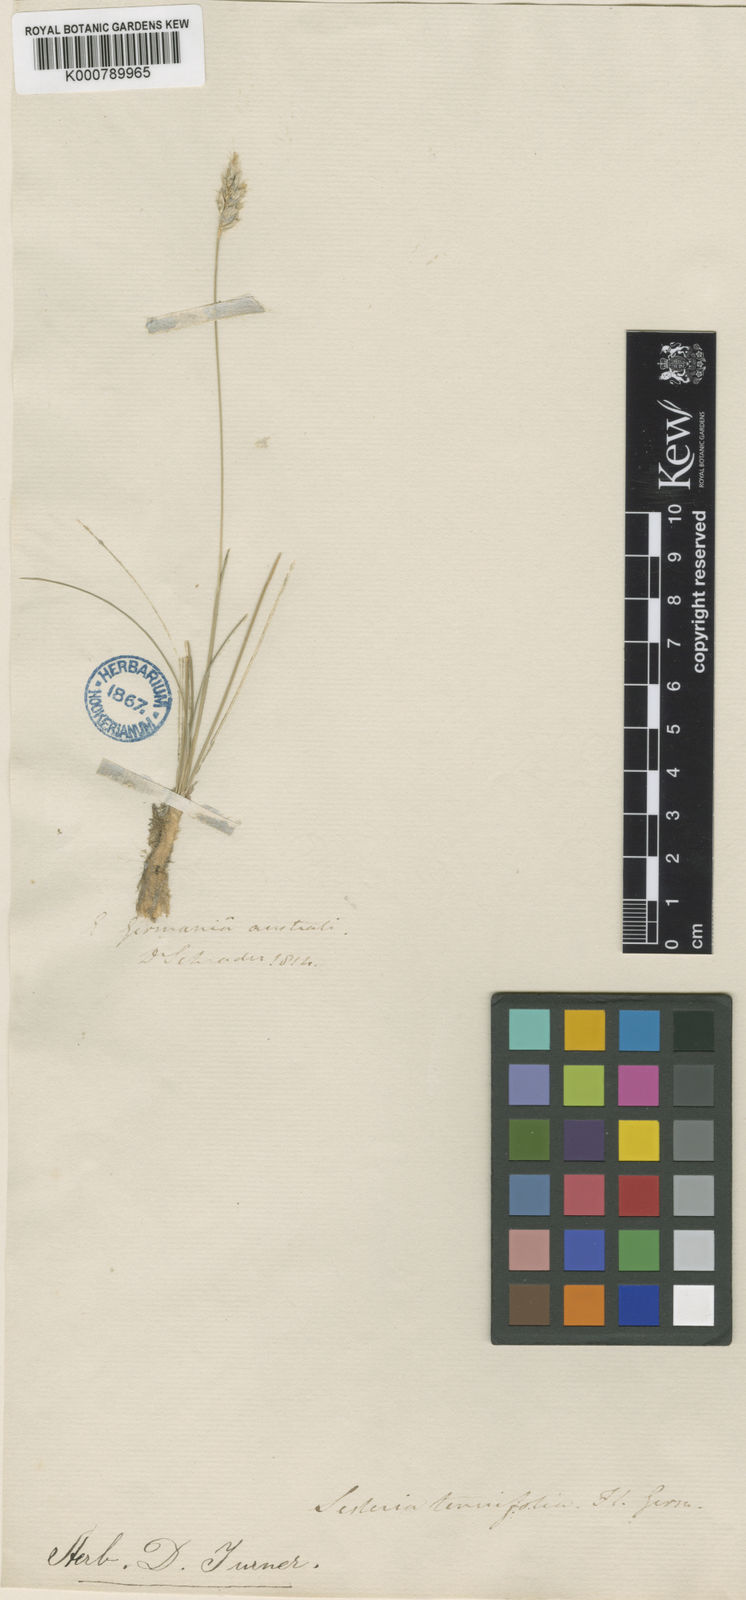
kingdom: Plantae
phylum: Tracheophyta
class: Liliopsida
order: Poales
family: Poaceae
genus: Sesleria
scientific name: Sesleria juncifolia
